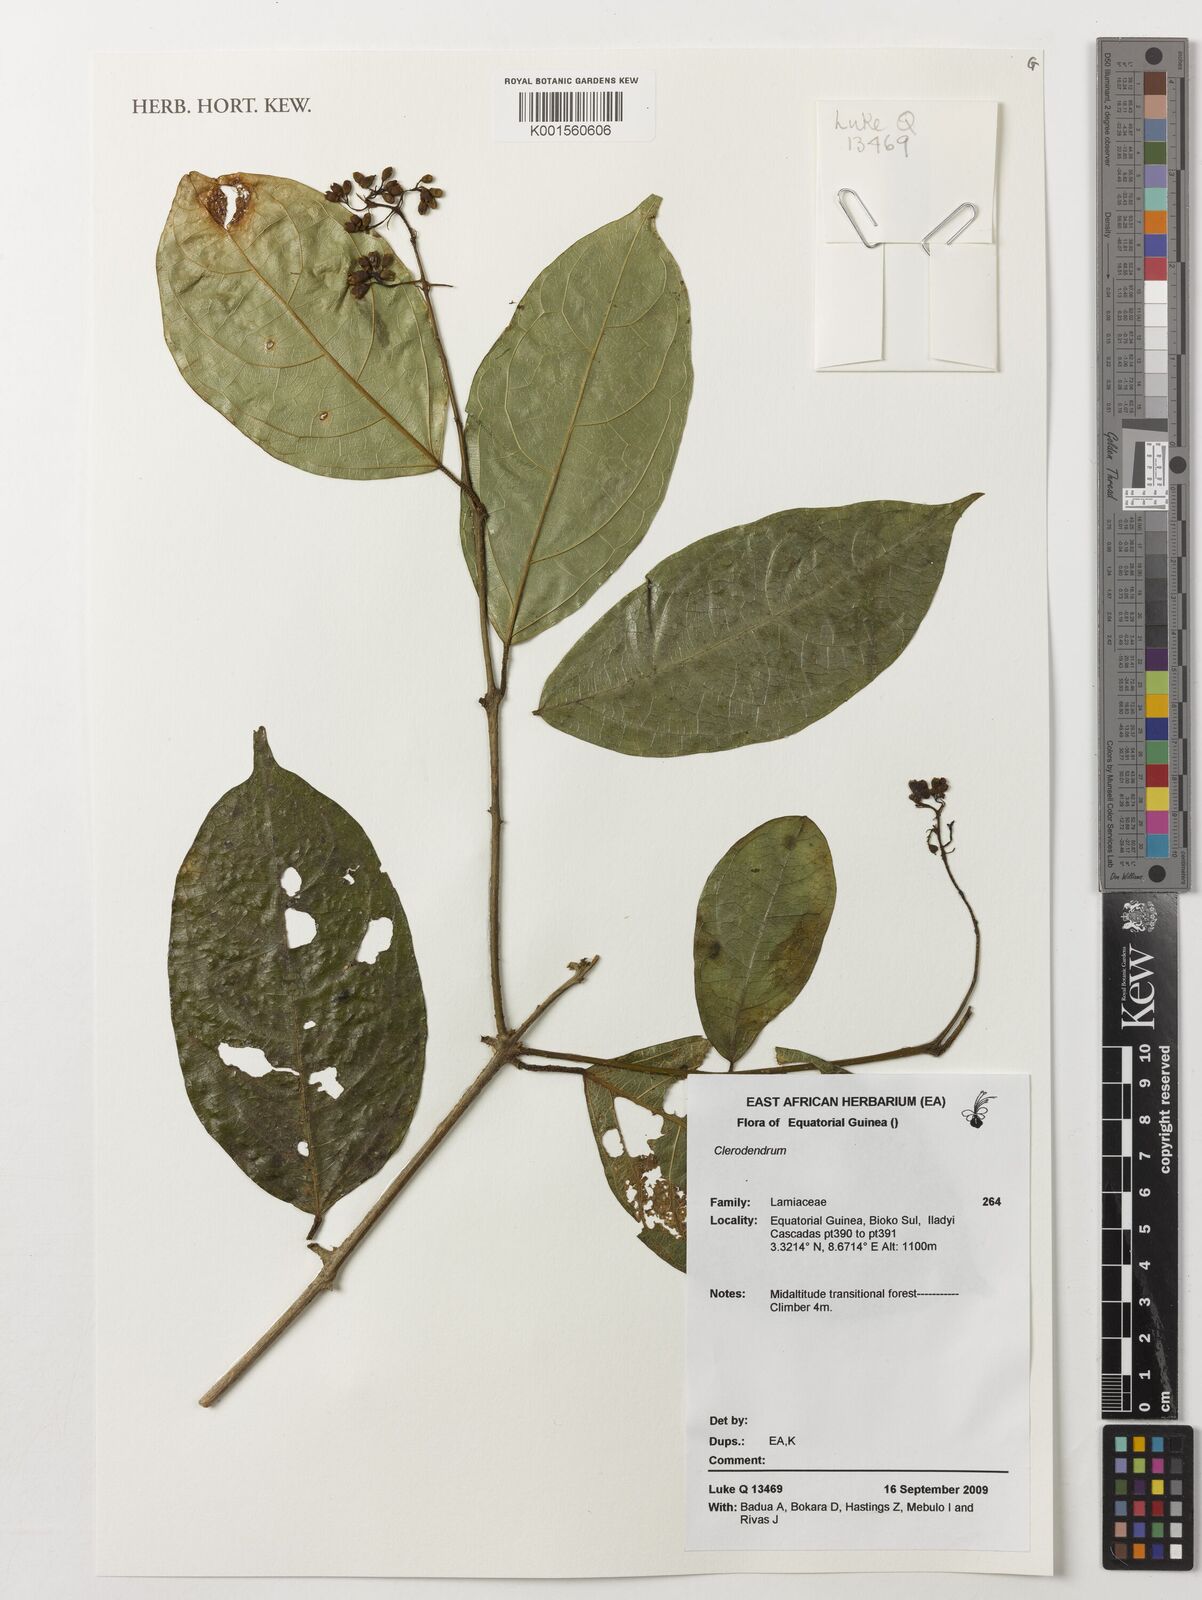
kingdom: Plantae
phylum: Tracheophyta
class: Magnoliopsida
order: Lamiales
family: Lamiaceae
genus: Clerodendrum
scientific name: Clerodendrum
